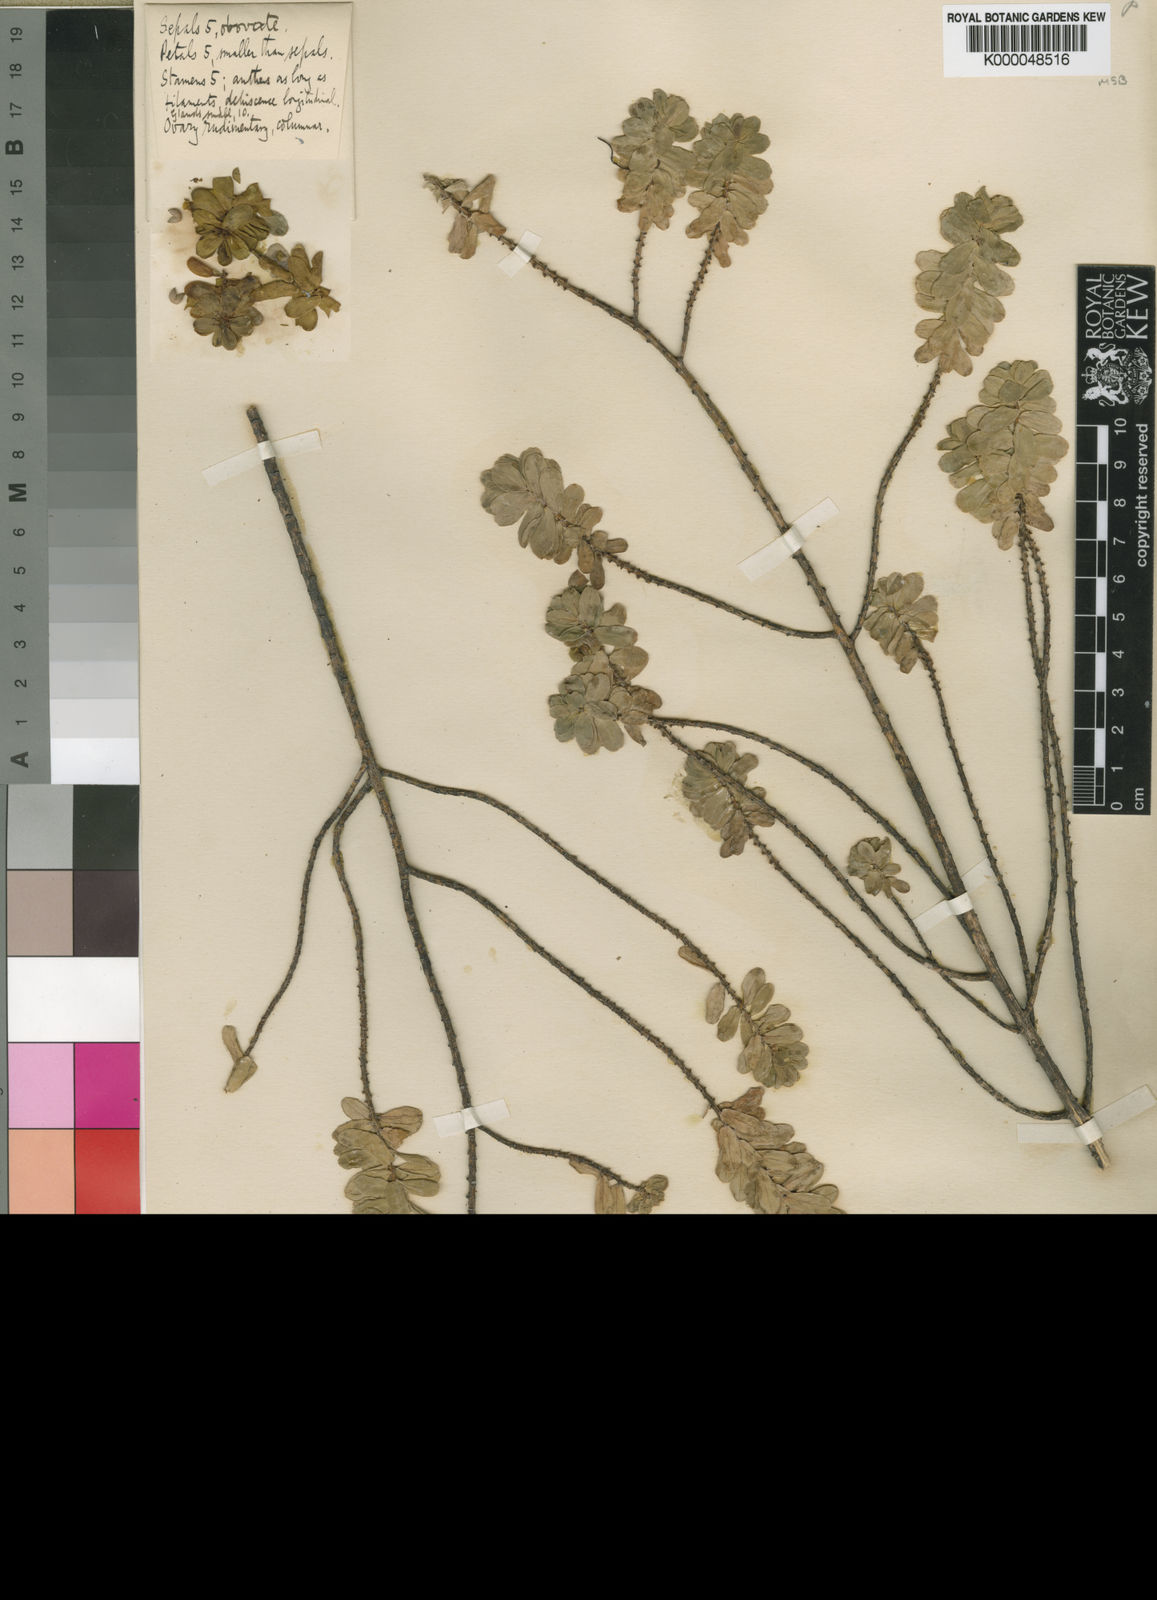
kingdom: Plantae
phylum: Tracheophyta
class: Magnoliopsida
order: Malpighiales
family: Peraceae
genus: Clutia
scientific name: Clutia conferta
